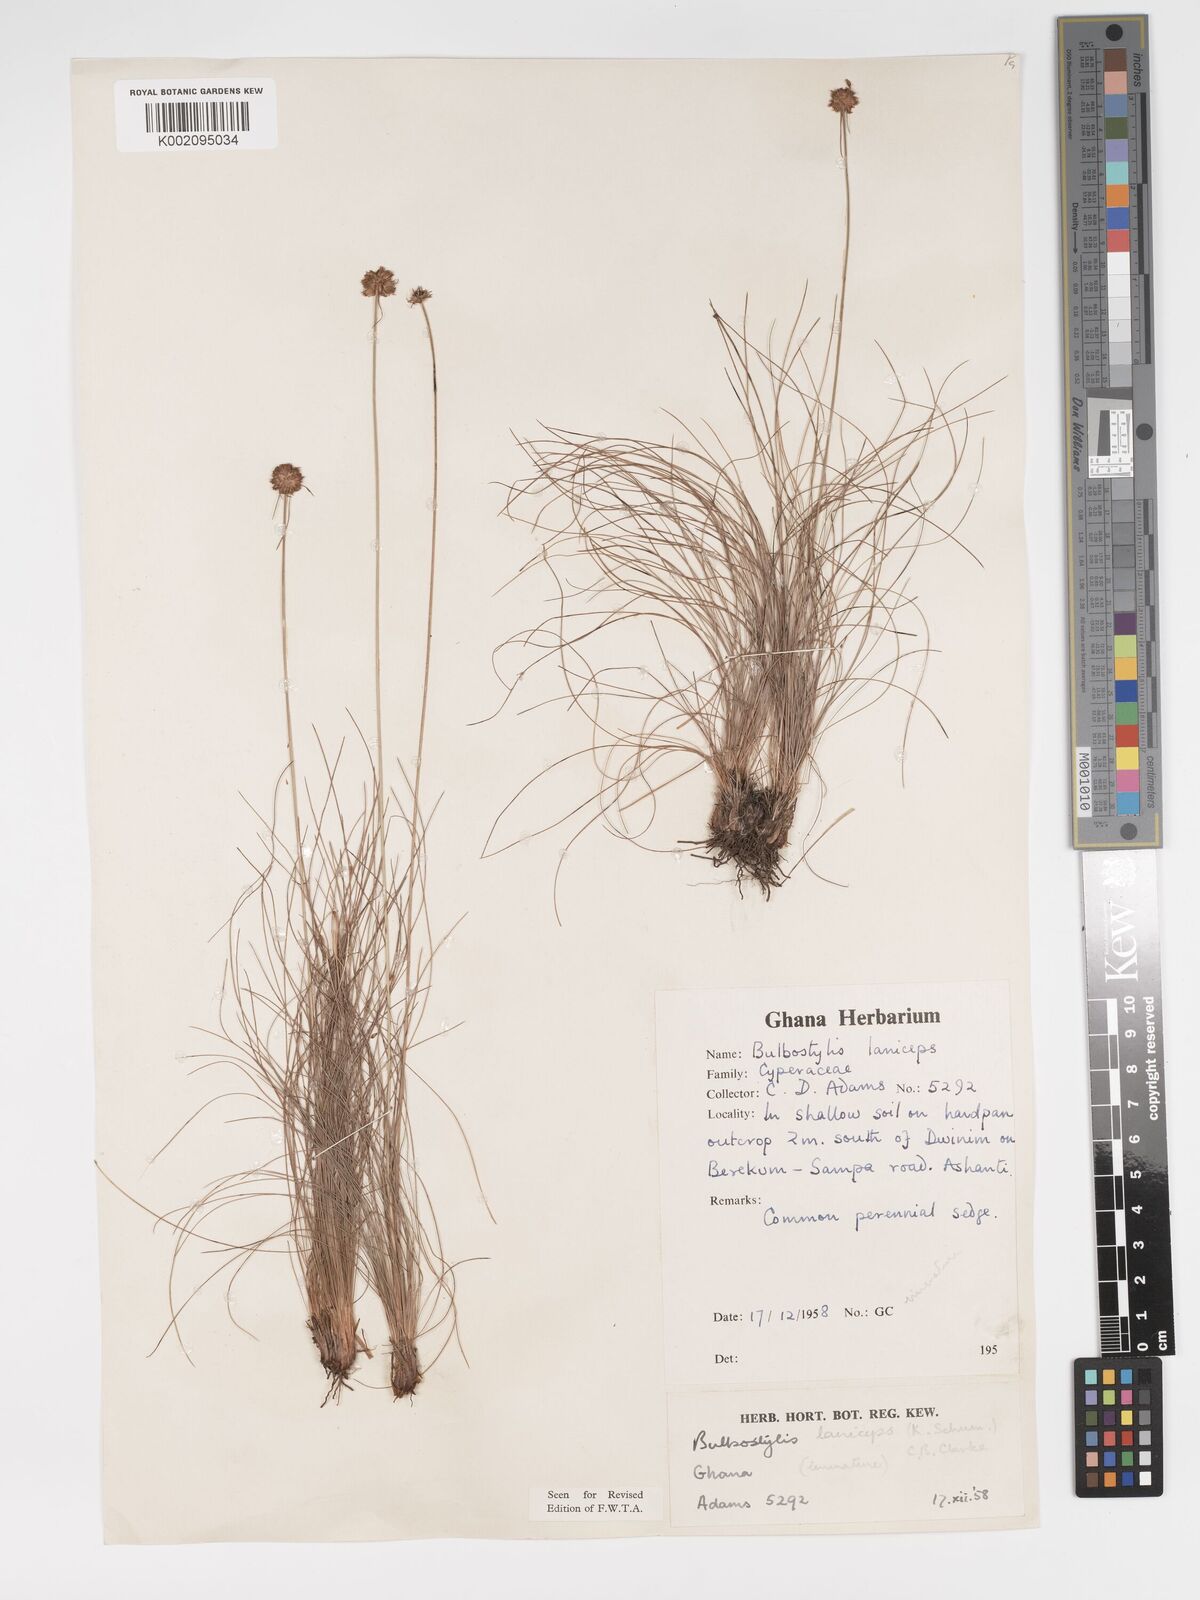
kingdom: Plantae
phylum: Tracheophyta
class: Liliopsida
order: Poales
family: Cyperaceae
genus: Bulbostylis
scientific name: Bulbostylis laniceps
